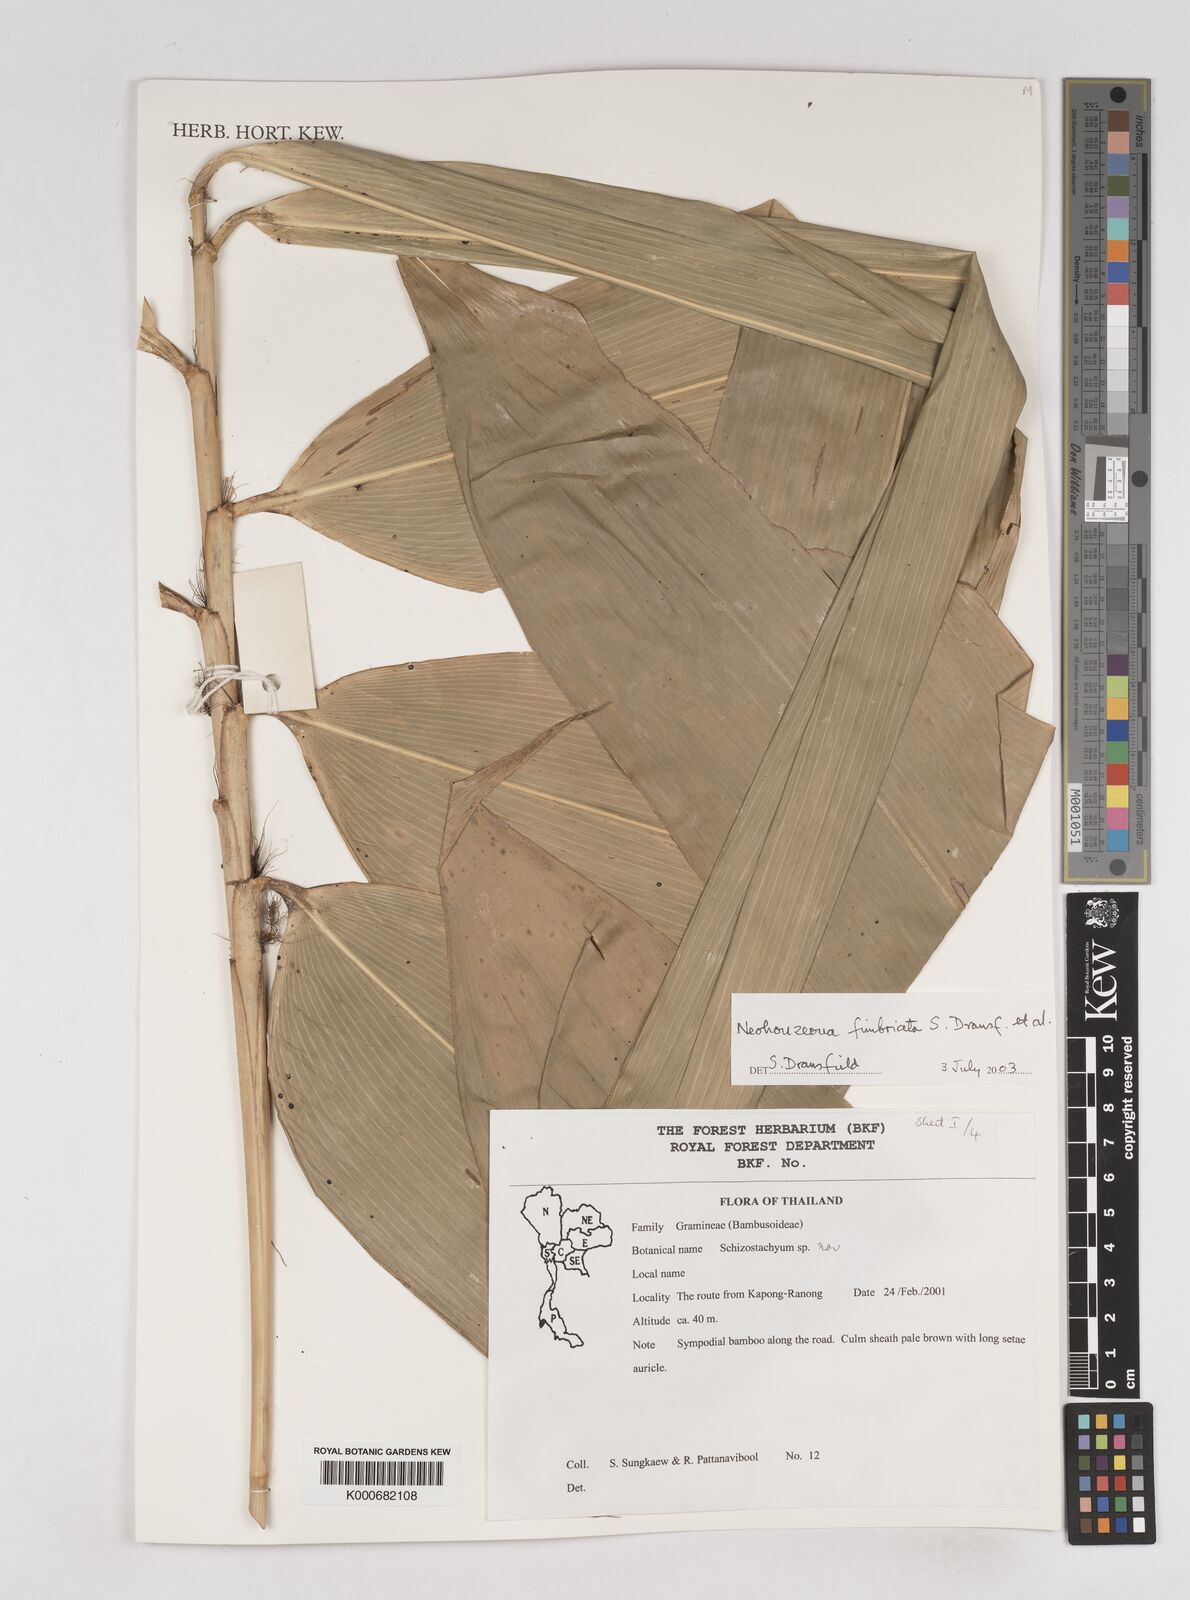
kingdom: Plantae
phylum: Tracheophyta
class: Liliopsida
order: Poales
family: Poaceae
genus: Schizostachyum
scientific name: Schizostachyum
